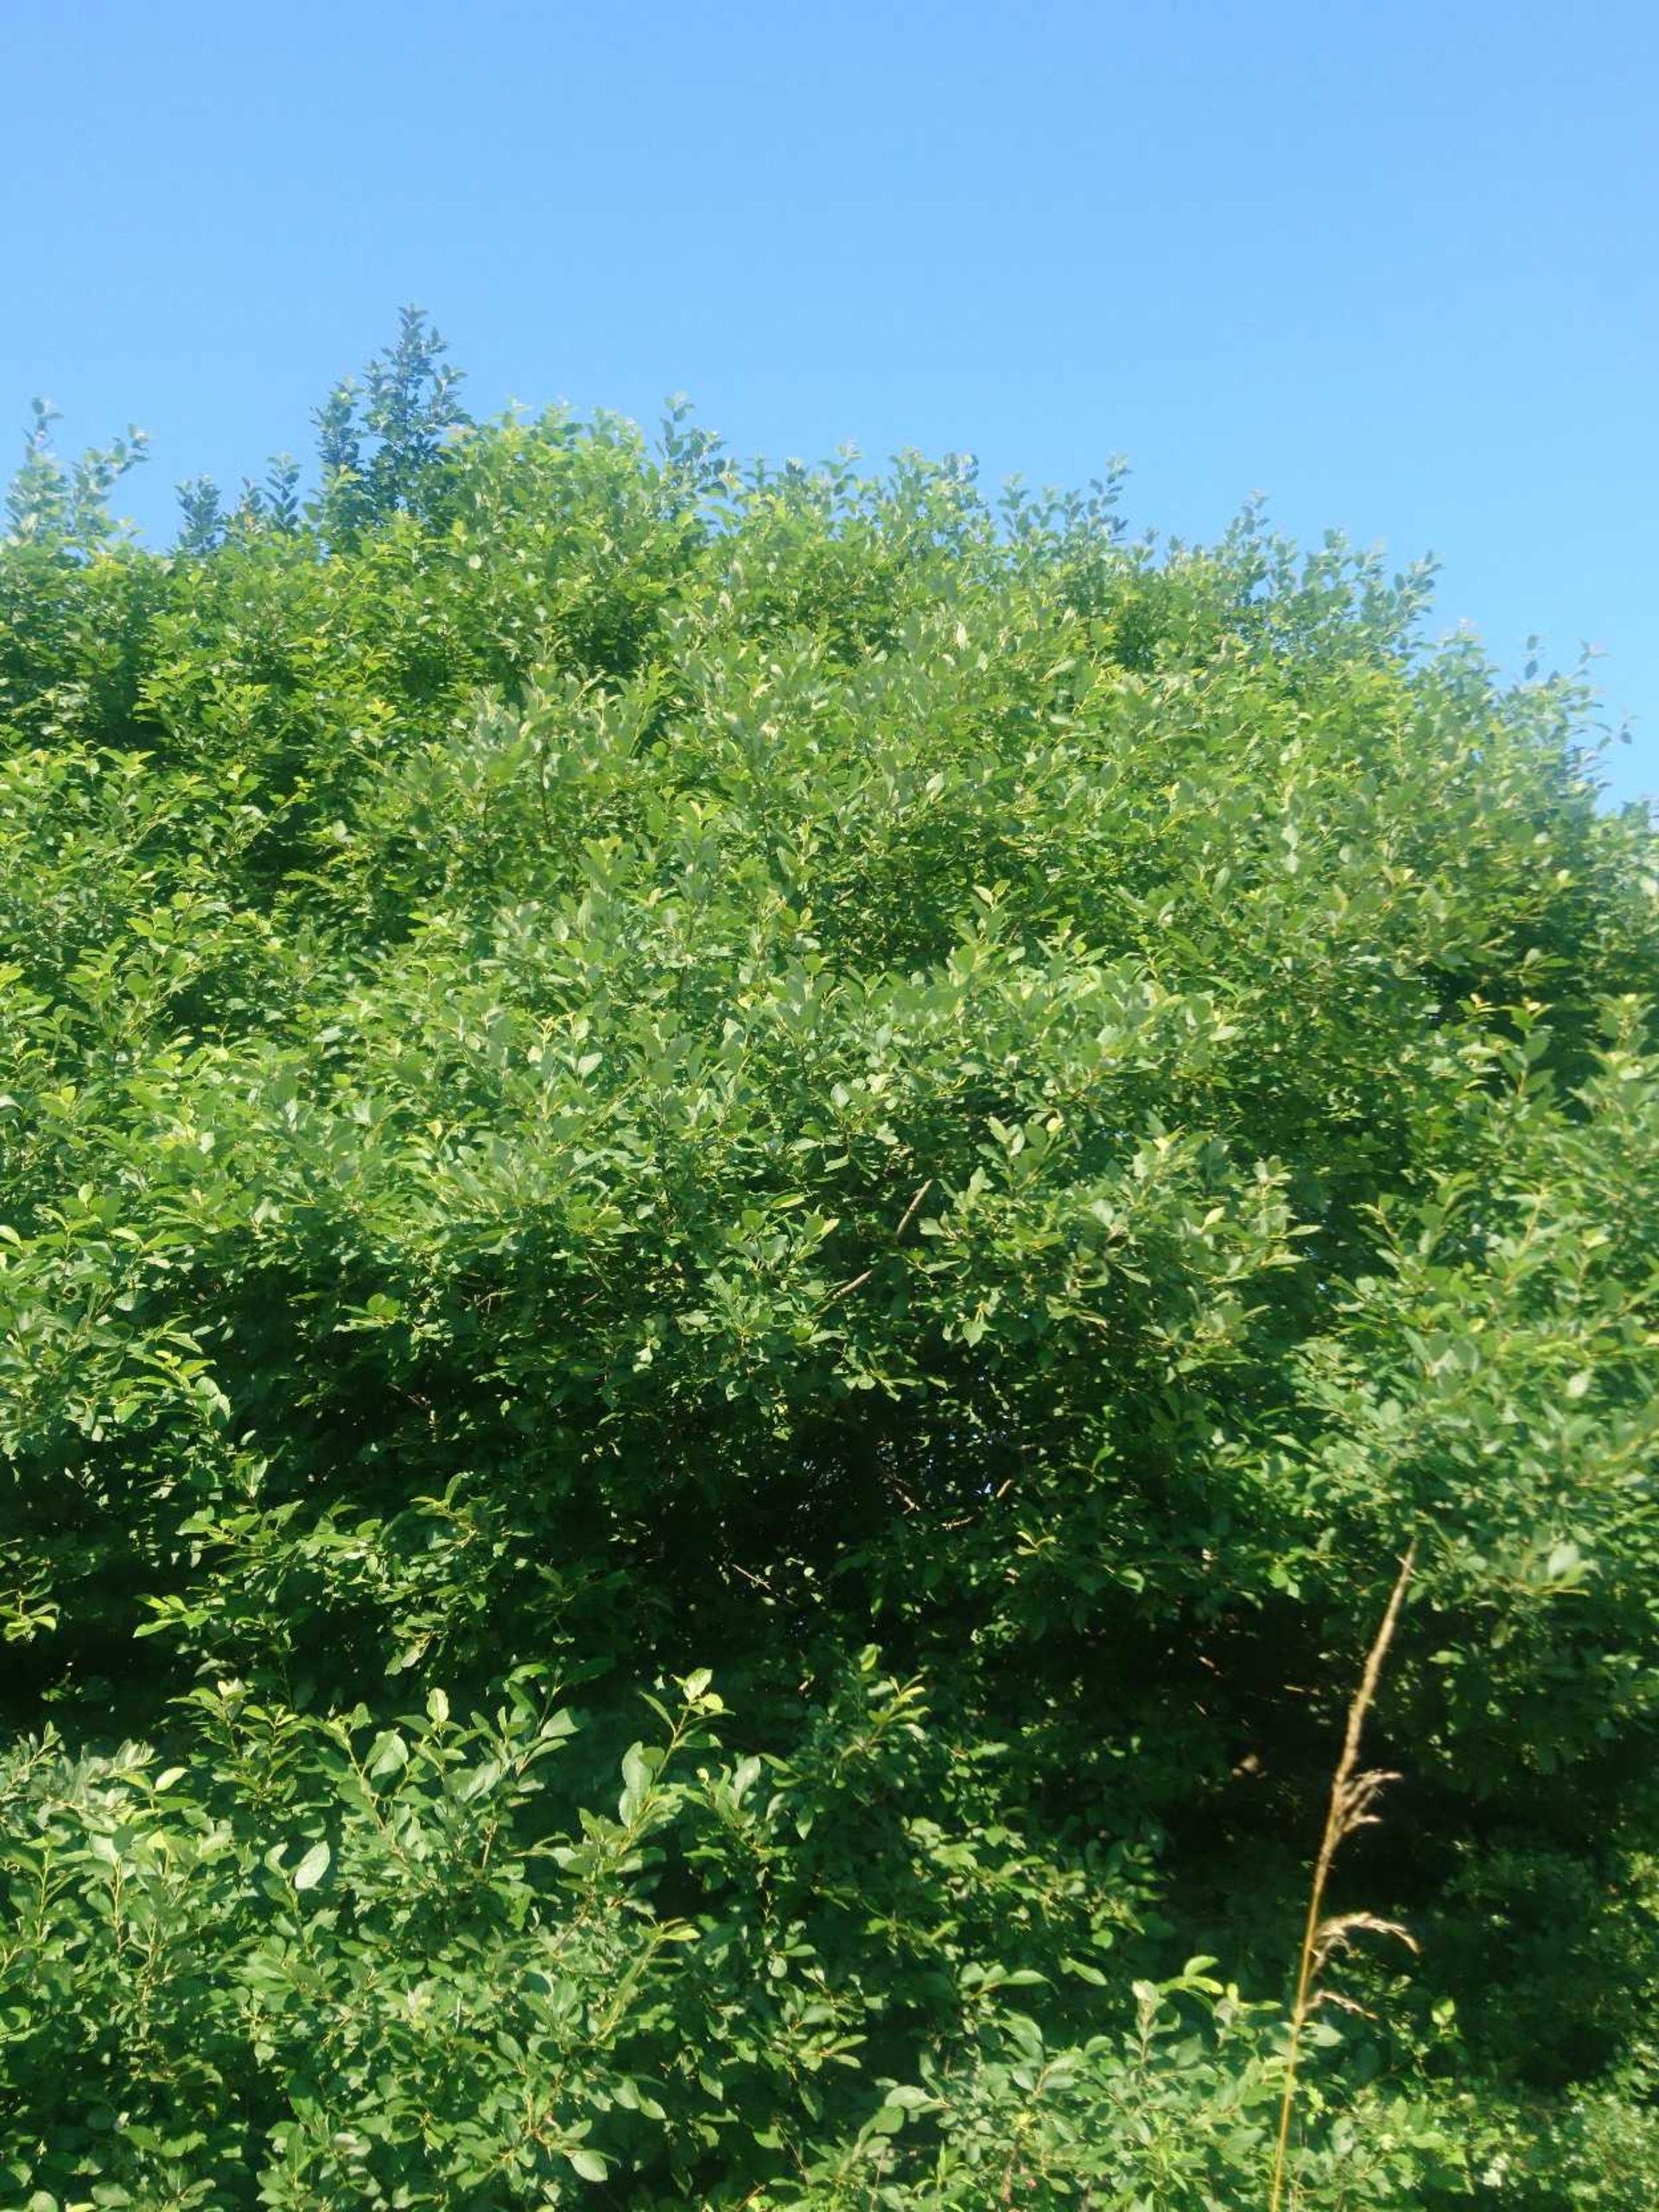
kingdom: Plantae
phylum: Tracheophyta
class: Magnoliopsida
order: Malpighiales
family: Salicaceae
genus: Salix
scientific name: Salix caprea
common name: Selje-pil
